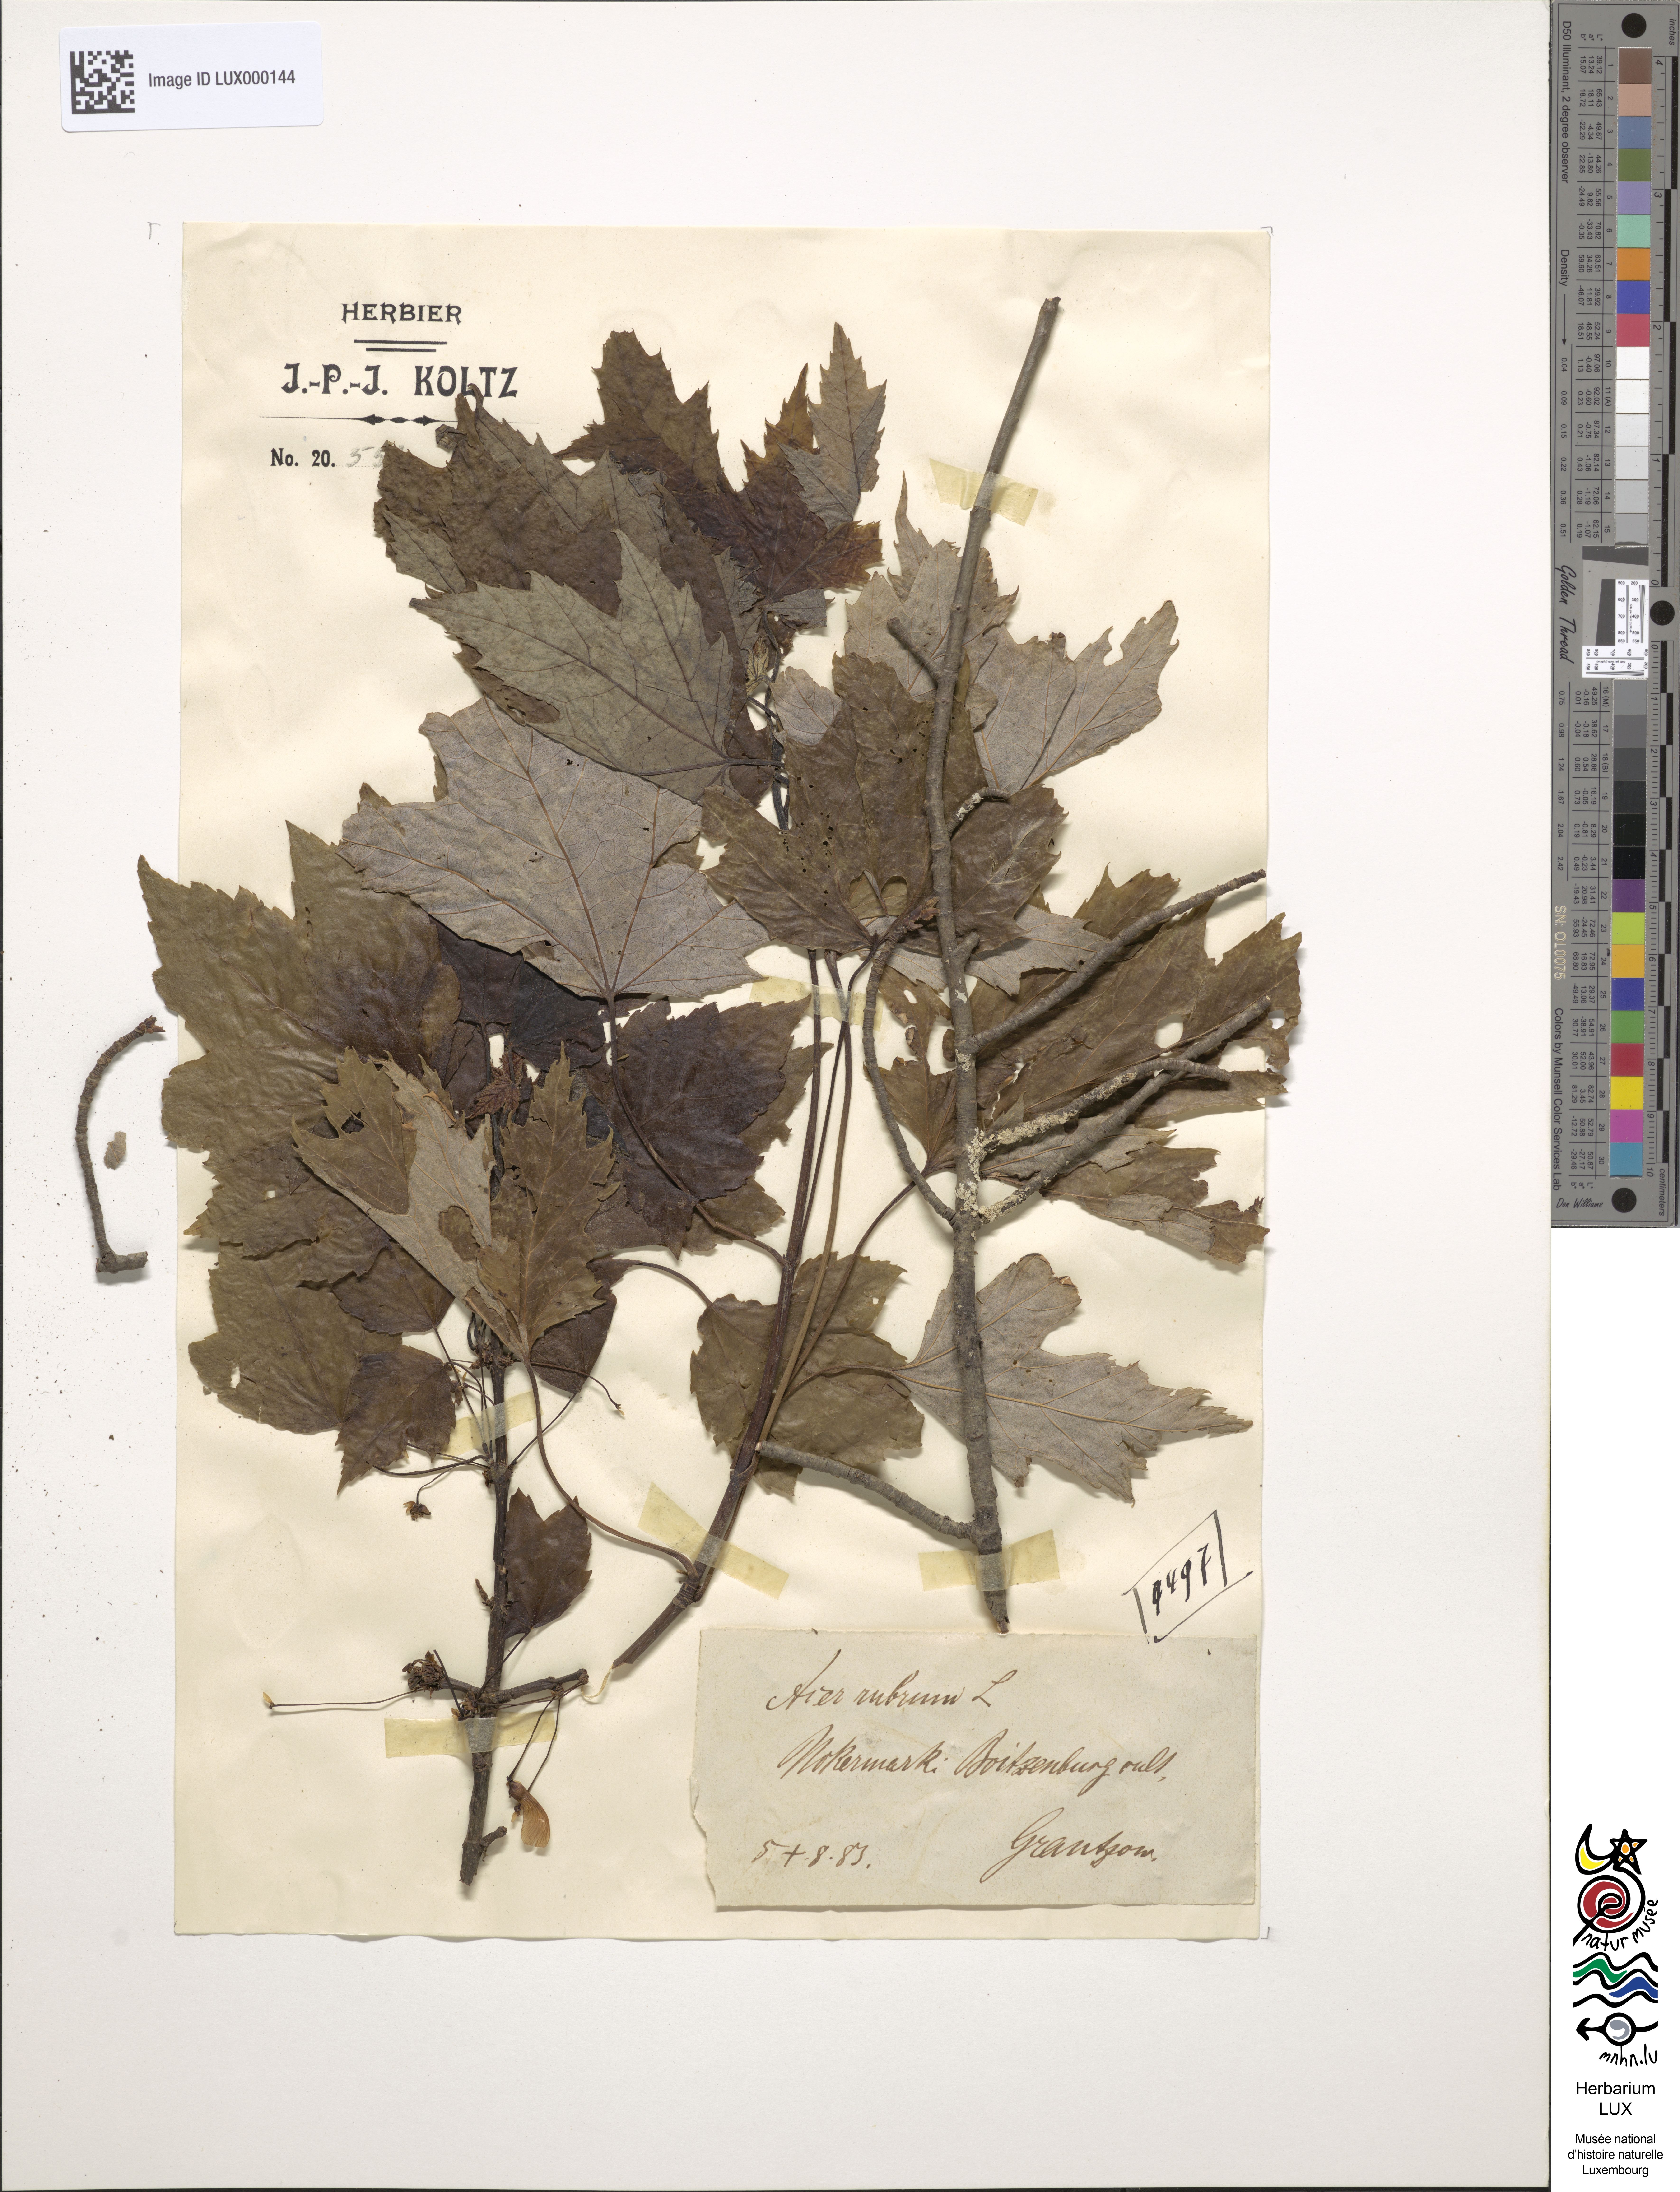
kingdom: Plantae
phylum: Tracheophyta
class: Magnoliopsida
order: Sapindales
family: Sapindaceae
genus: Acer
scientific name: Acer rubrum
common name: Red maple
